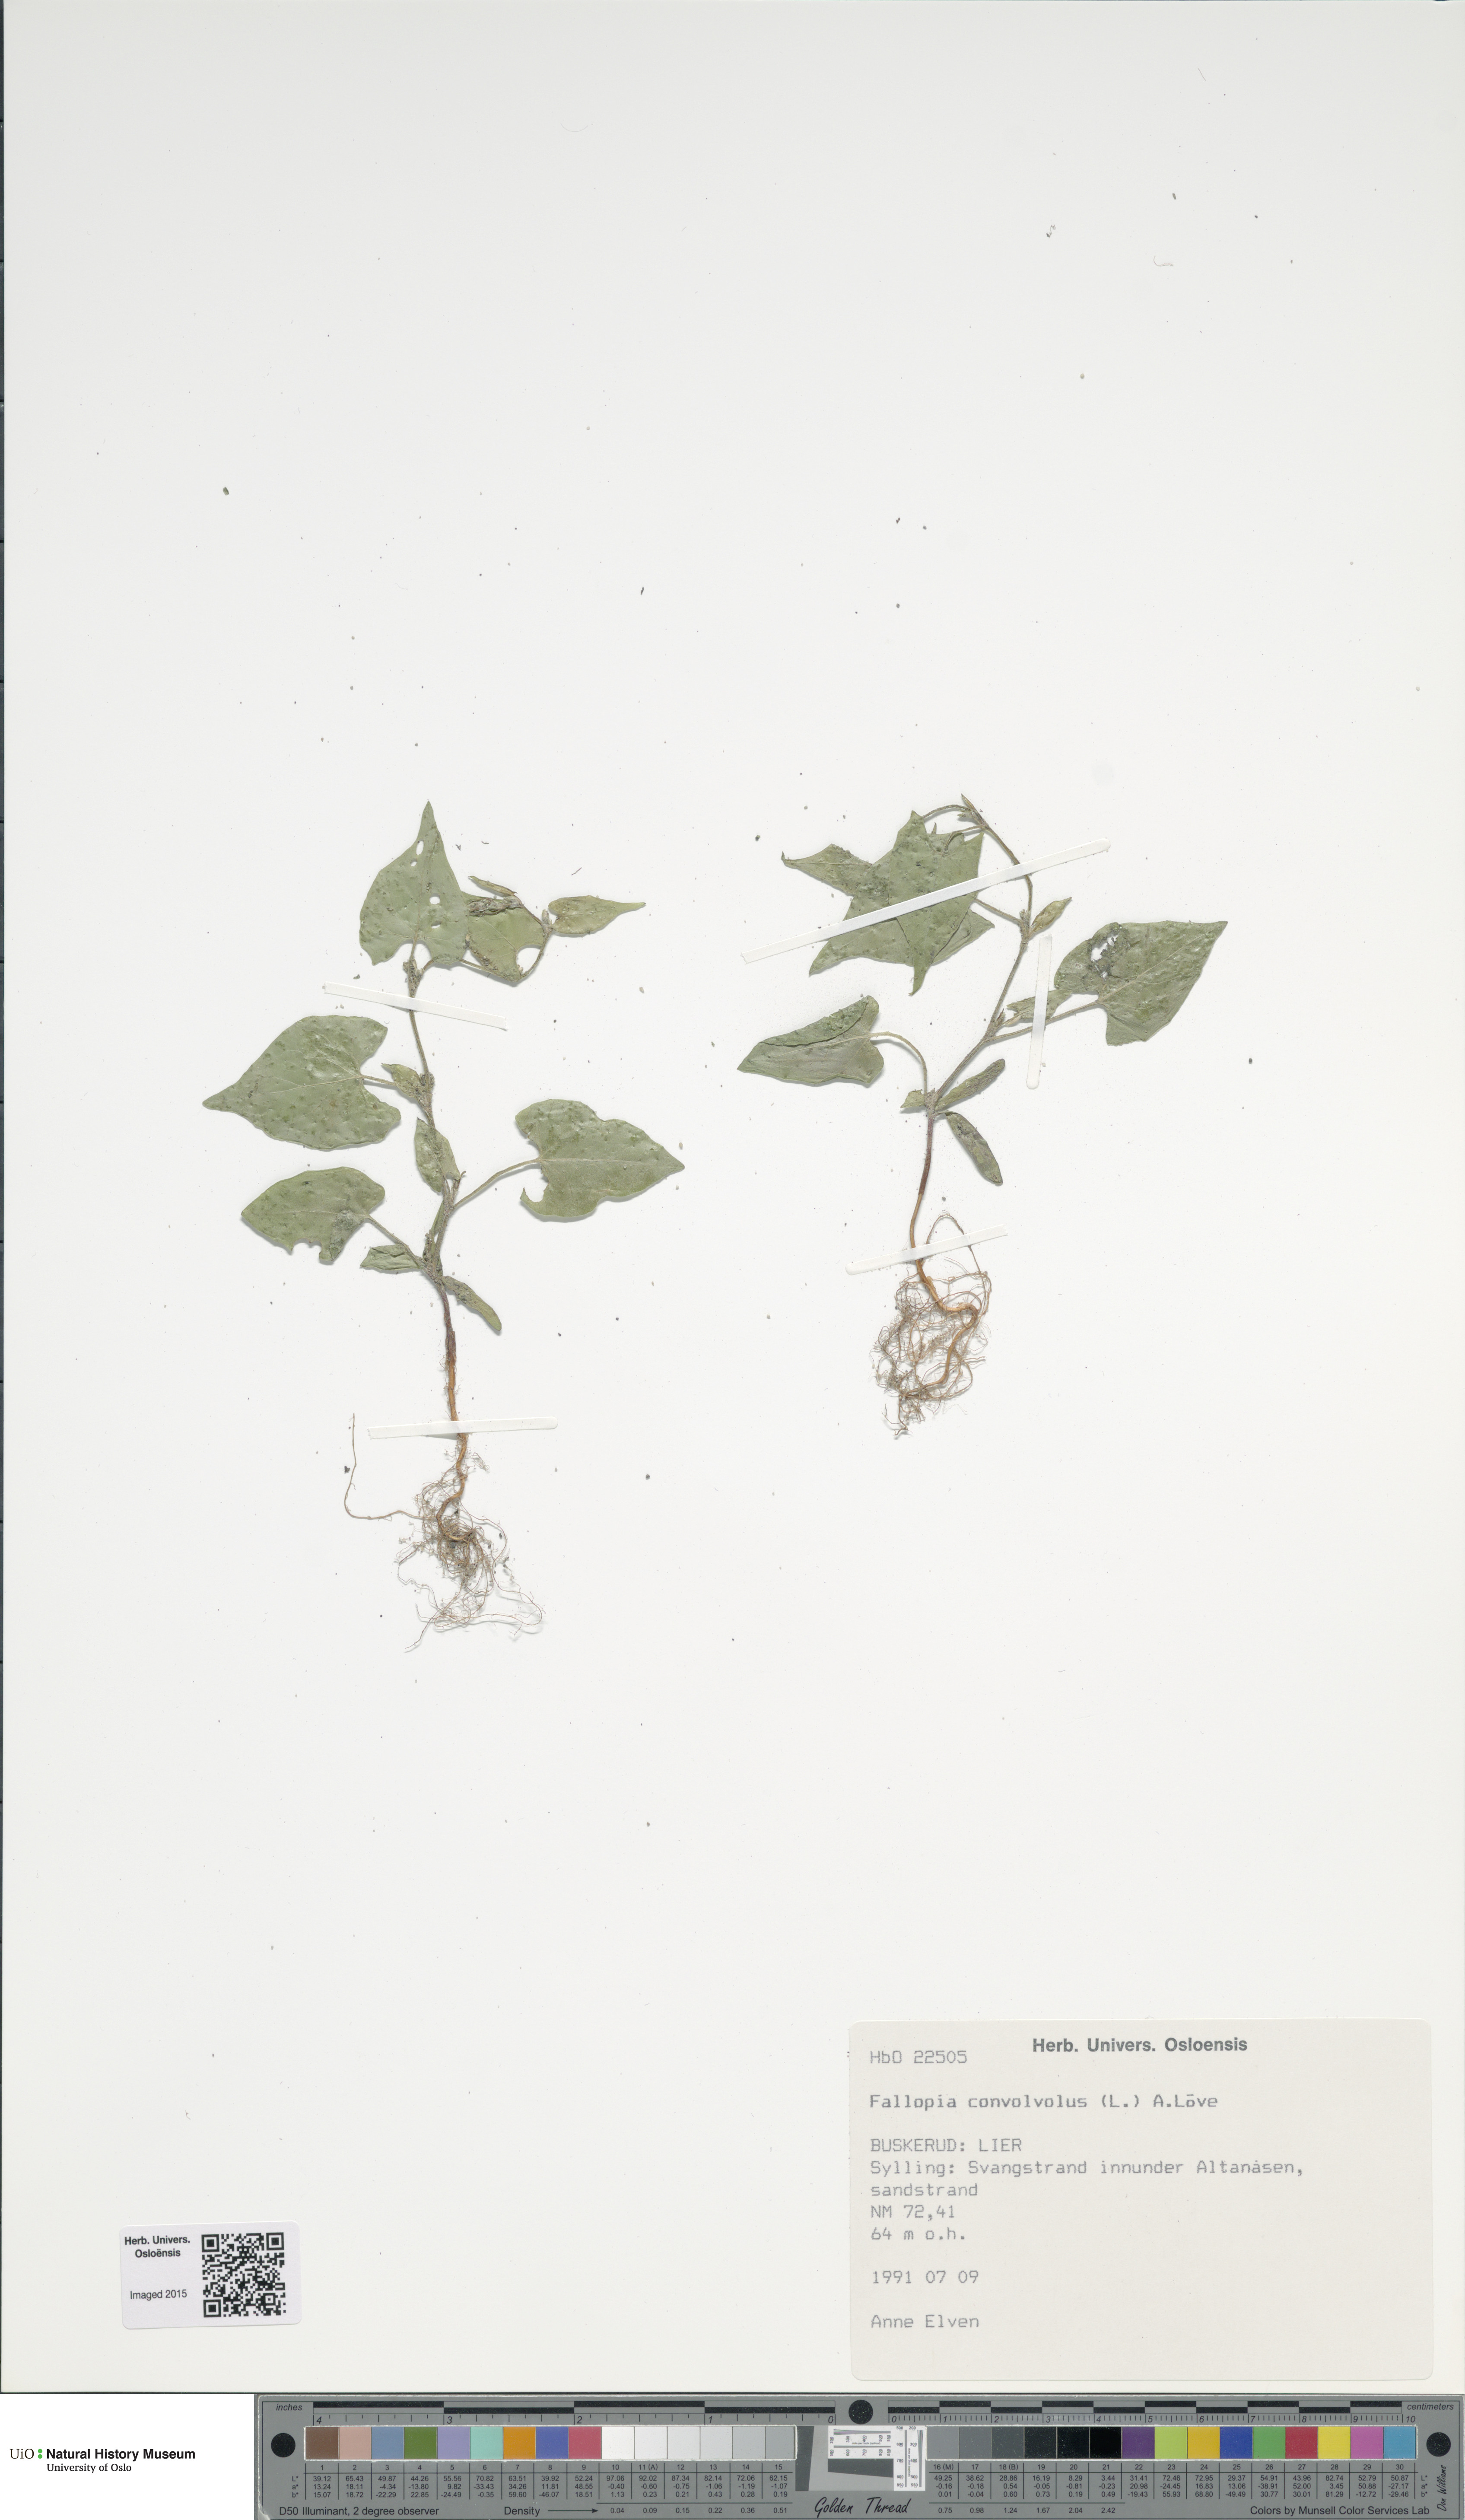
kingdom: Plantae
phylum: Tracheophyta
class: Magnoliopsida
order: Caryophyllales
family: Polygonaceae
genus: Fallopia
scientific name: Fallopia convolvulus
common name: Black bindweed
